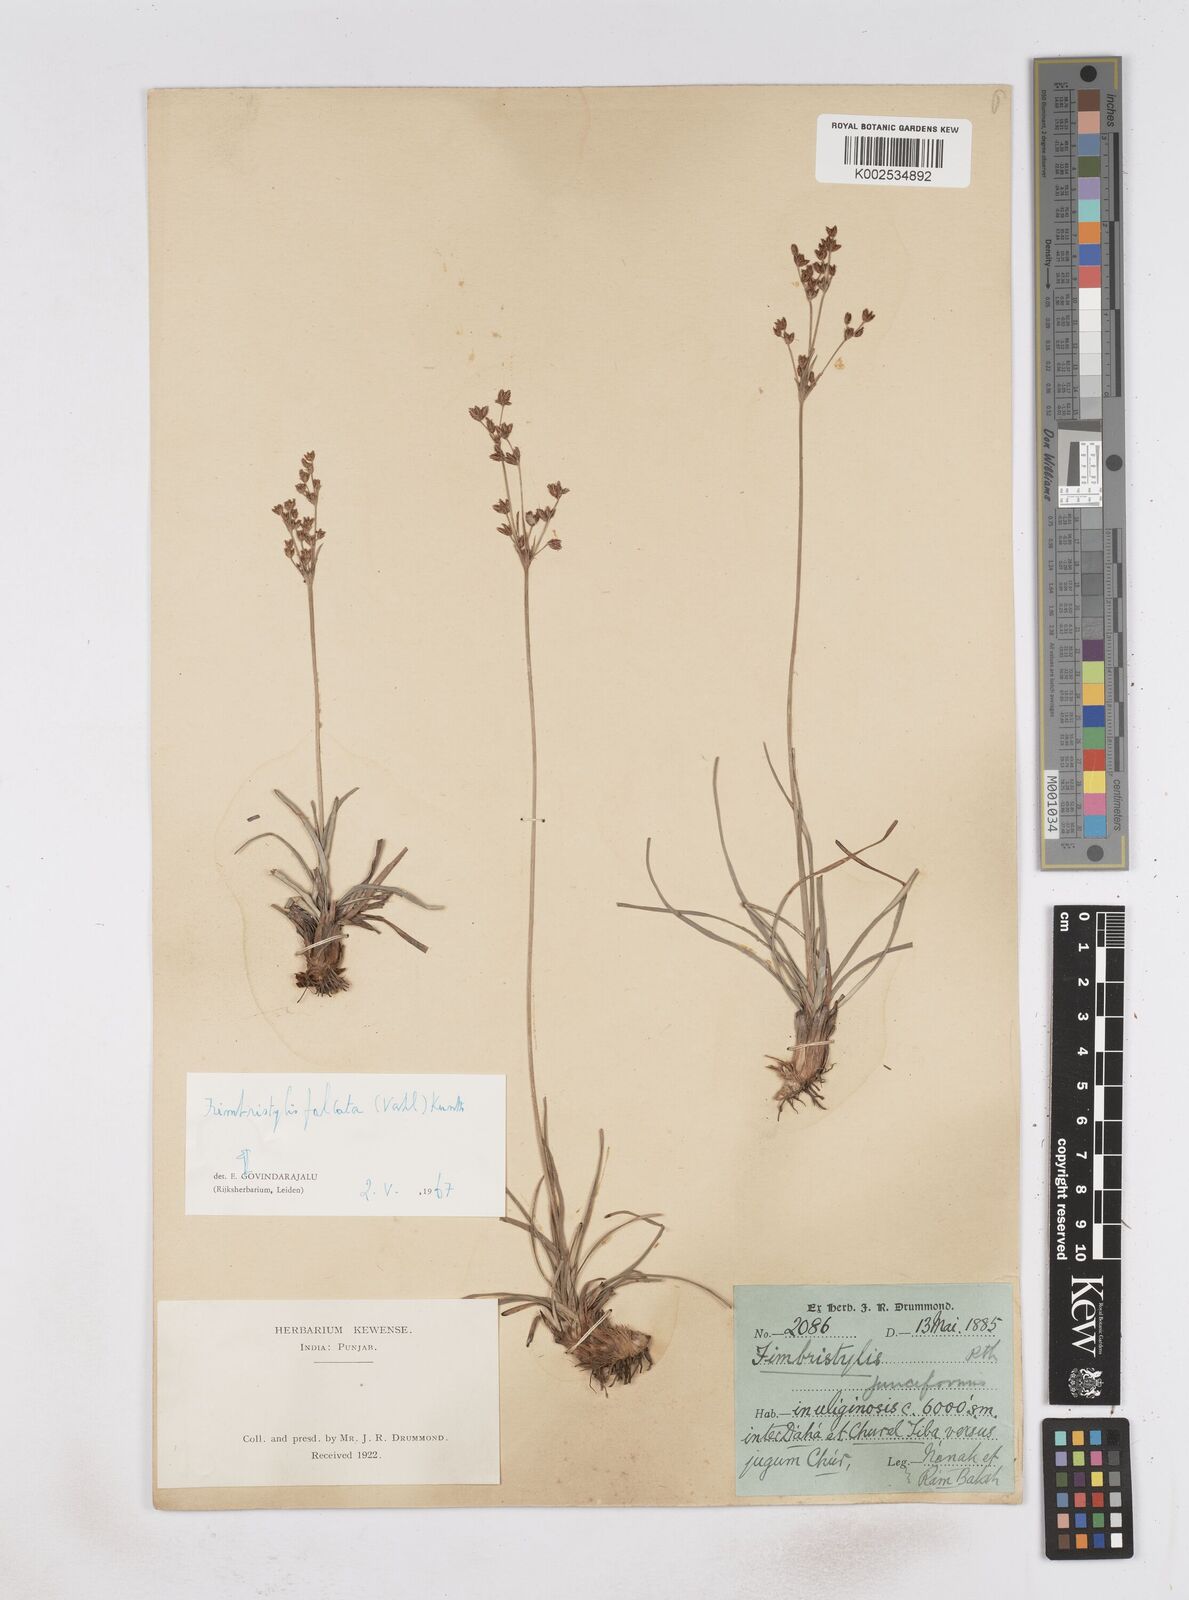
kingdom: Plantae
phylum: Tracheophyta
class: Liliopsida
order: Poales
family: Cyperaceae
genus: Fimbristylis
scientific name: Fimbristylis falcata
